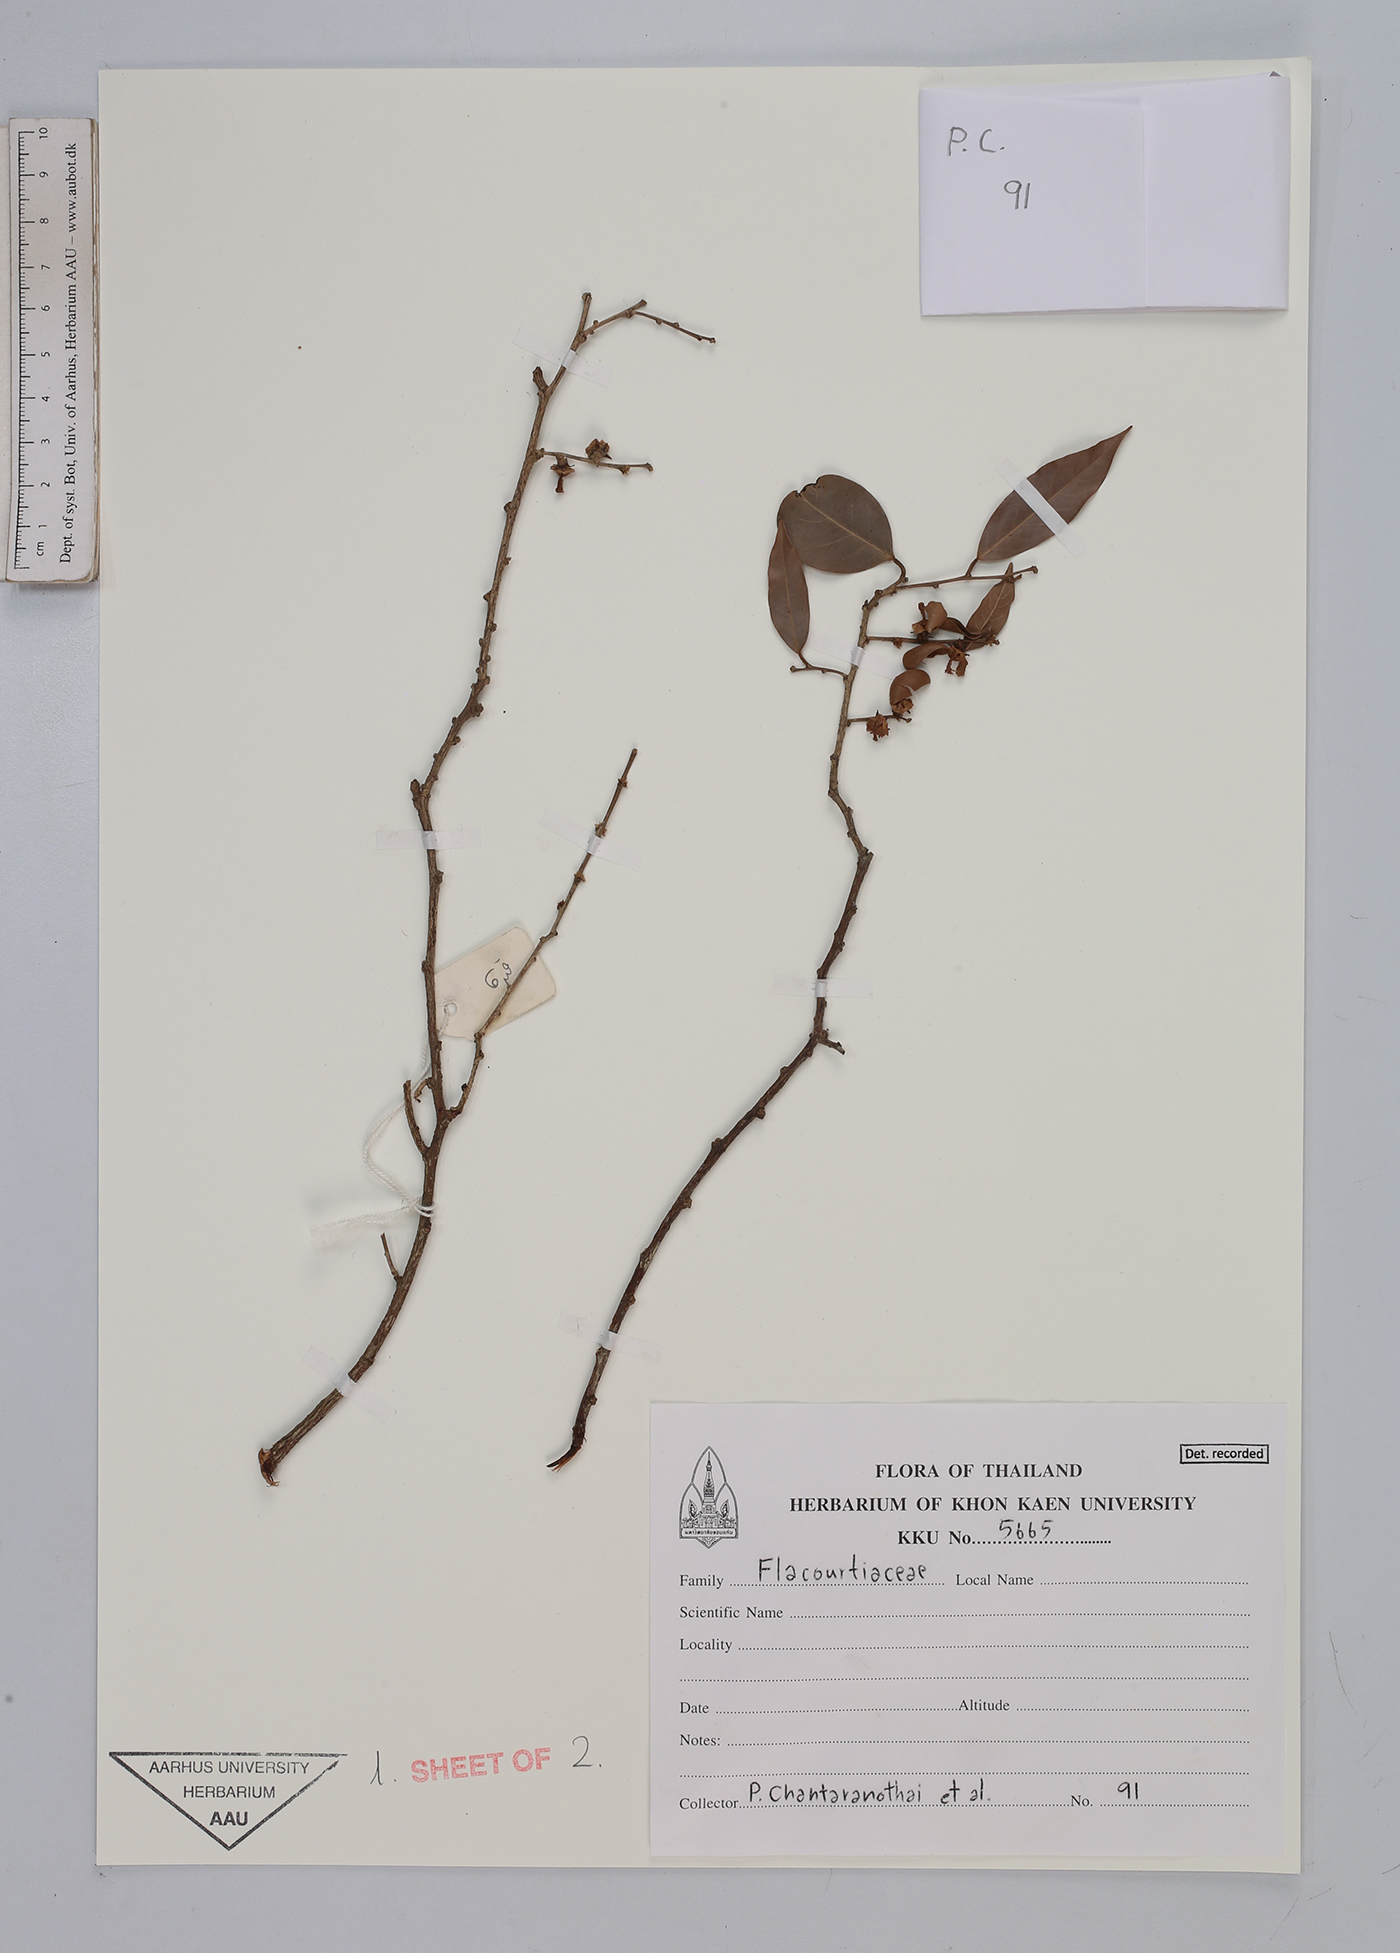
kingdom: Plantae
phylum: Tracheophyta
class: Magnoliopsida
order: Malpighiales
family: Flacourtiaceae
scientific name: Flacourtiaceae
